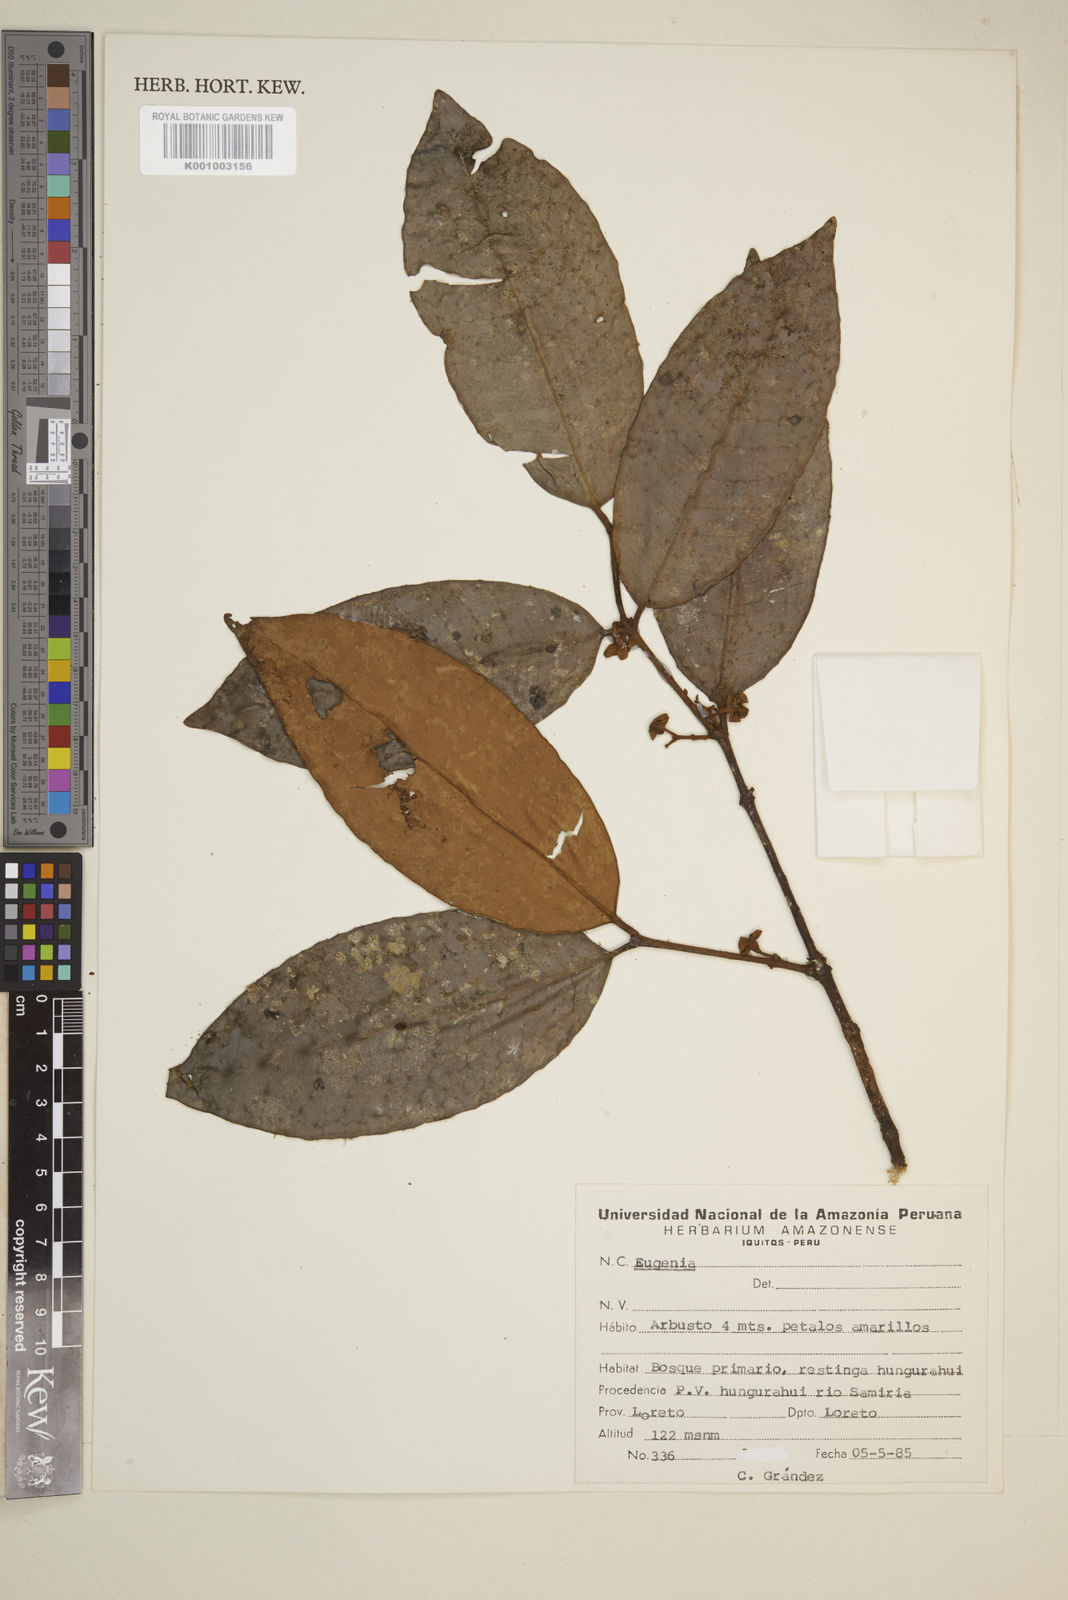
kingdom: Plantae
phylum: Tracheophyta
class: Magnoliopsida
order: Myrtales
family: Myrtaceae
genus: Eugenia
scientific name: Eugenia
